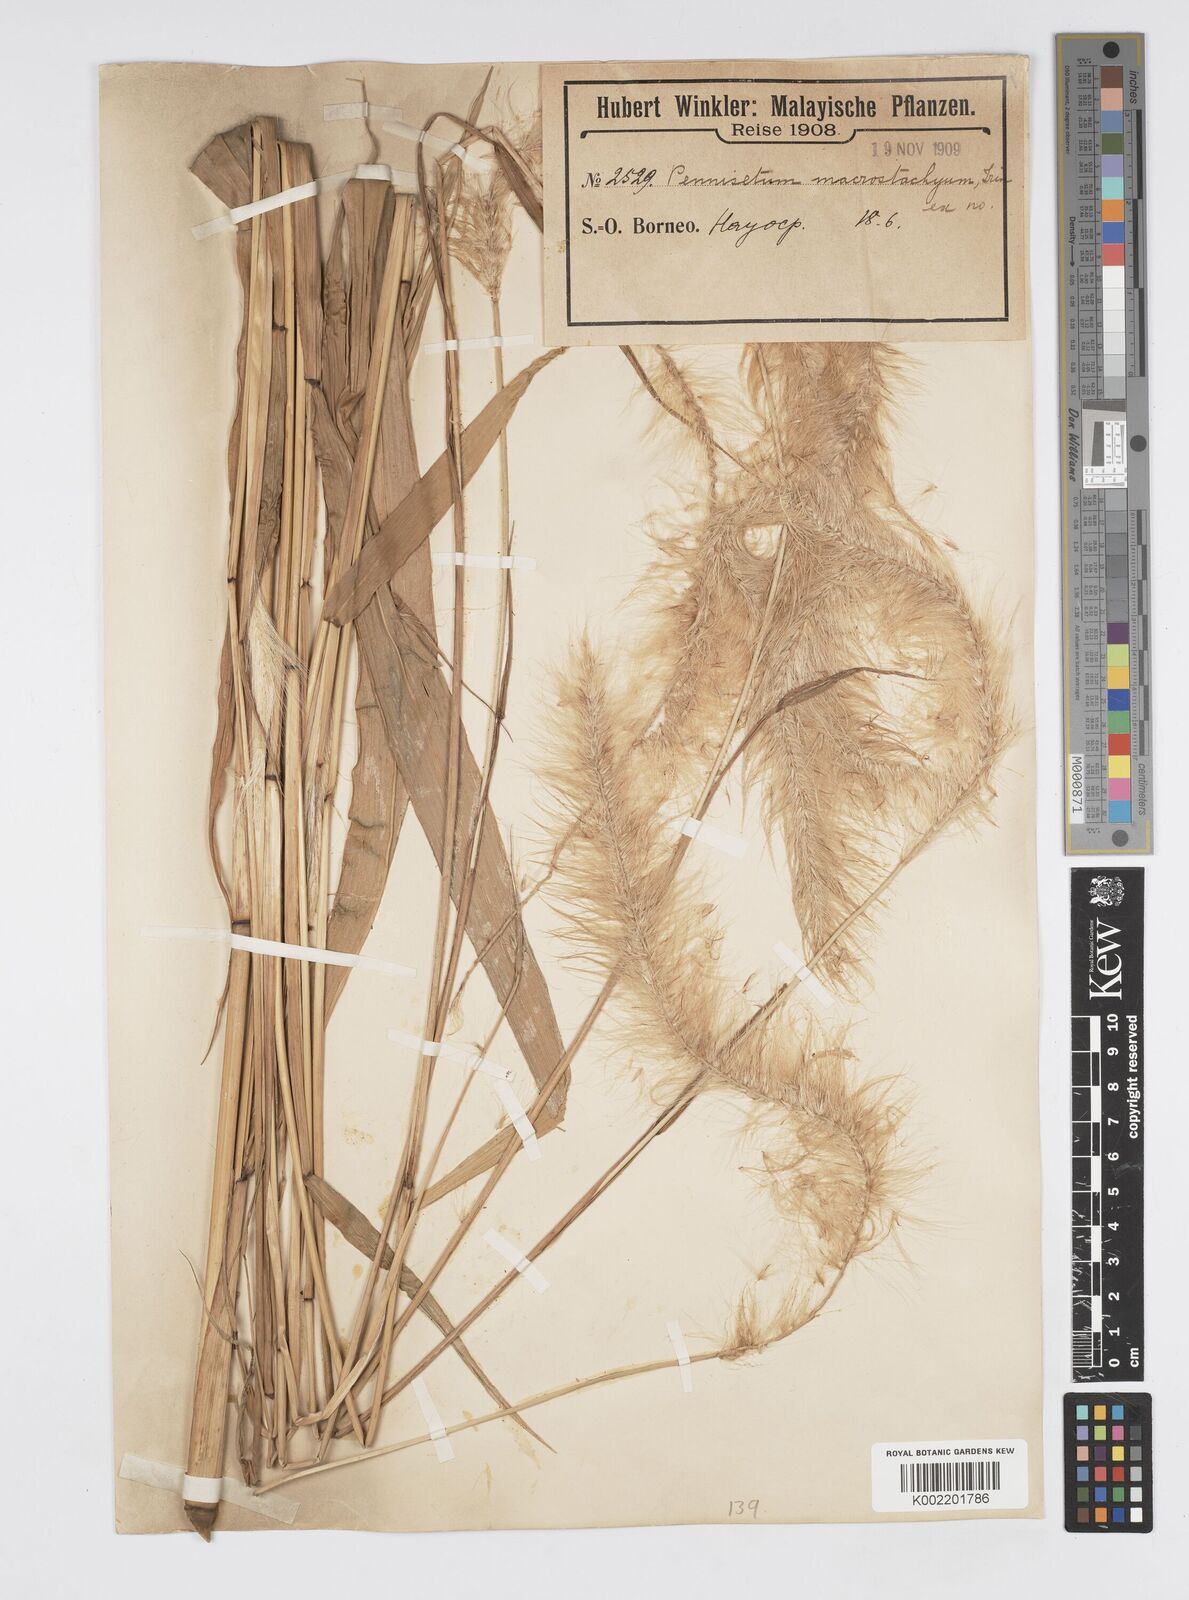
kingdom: Plantae
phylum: Tracheophyta
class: Liliopsida
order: Poales
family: Poaceae
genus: Cenchrus
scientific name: Cenchrus purpureus
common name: Elephant grass
